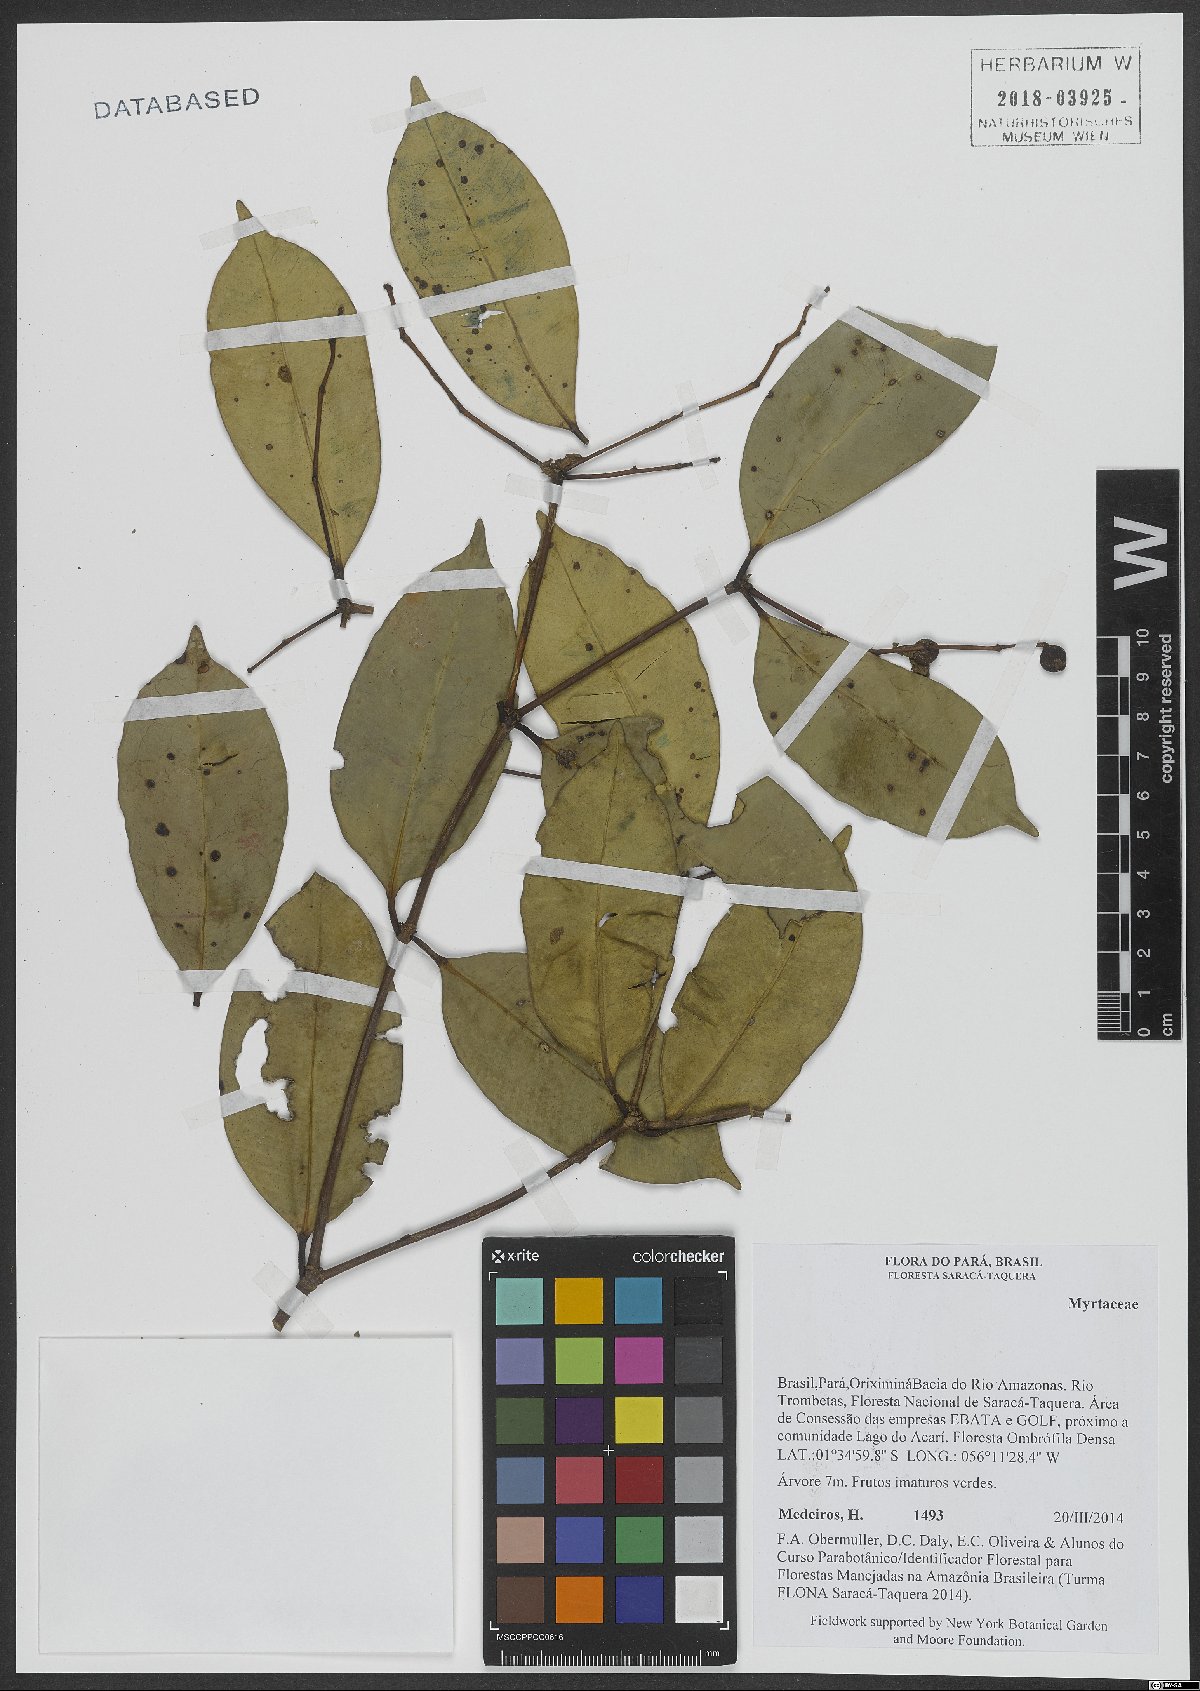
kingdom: Plantae
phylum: Tracheophyta
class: Magnoliopsida
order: Myrtales
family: Myrtaceae
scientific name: Myrtaceae
